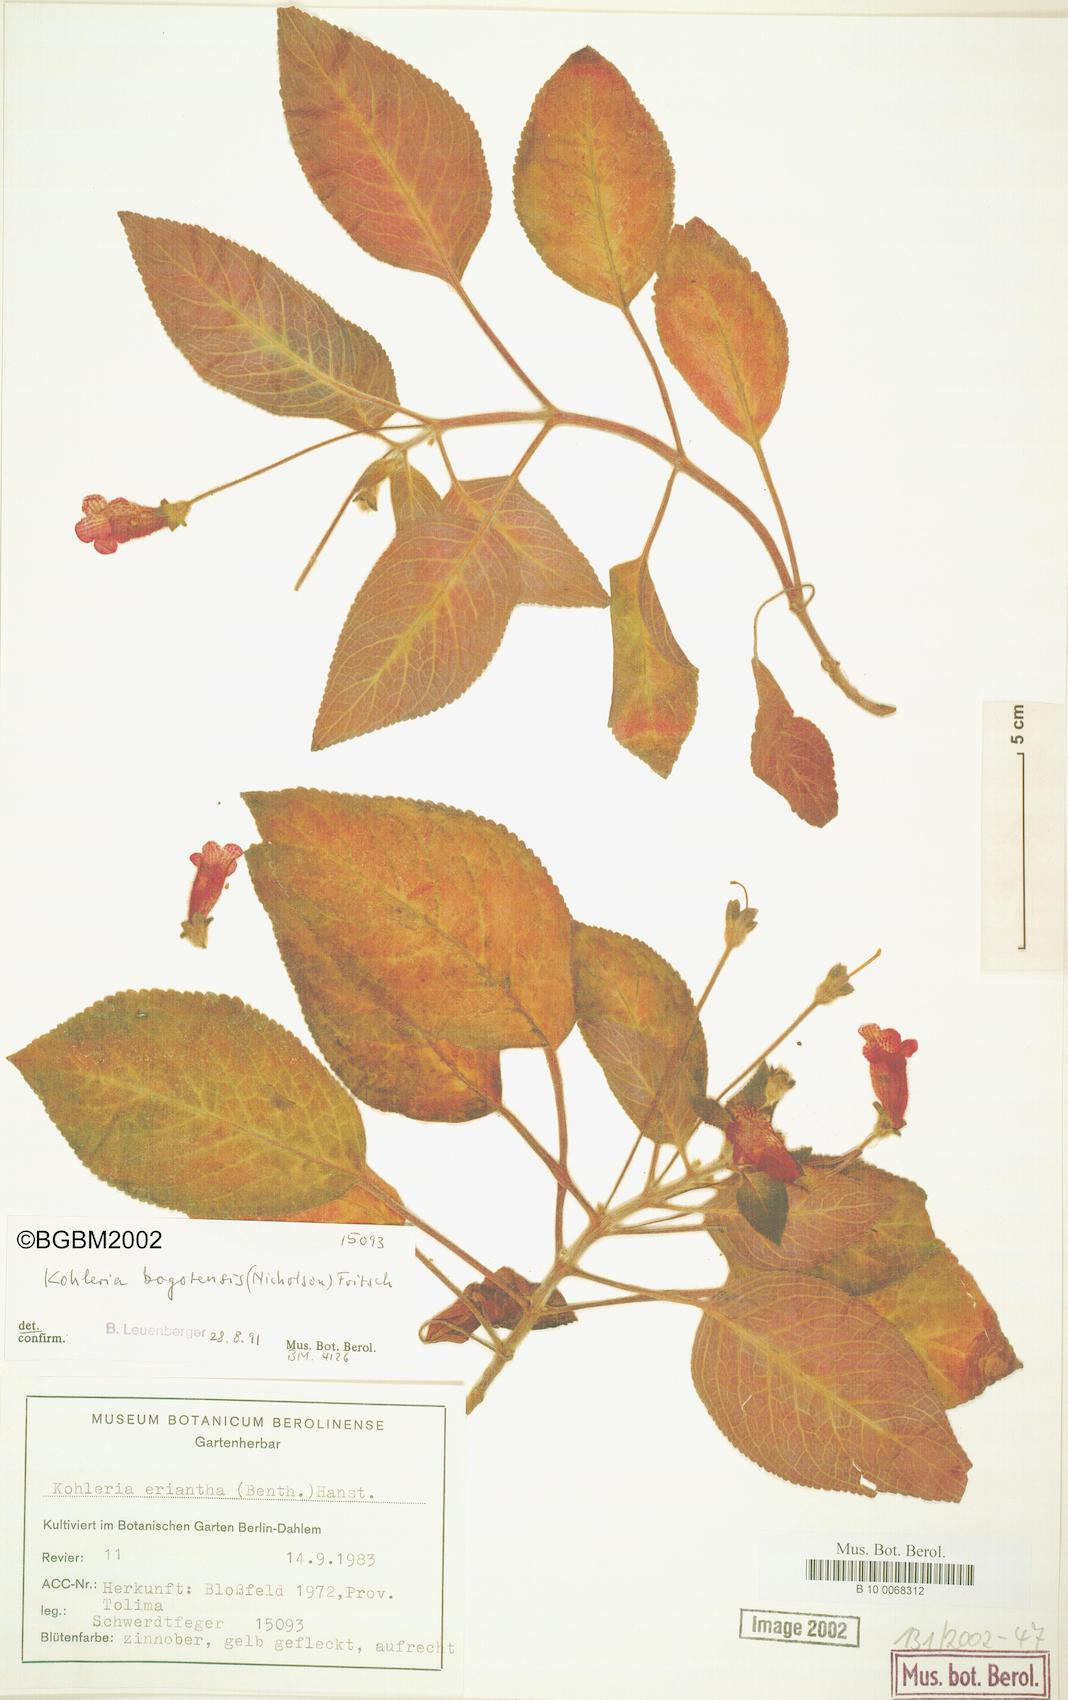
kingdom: Plantae
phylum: Tracheophyta
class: Magnoliopsida
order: Lamiales
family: Gesneriaceae
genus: Kohleria
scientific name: Kohleria amabilis
